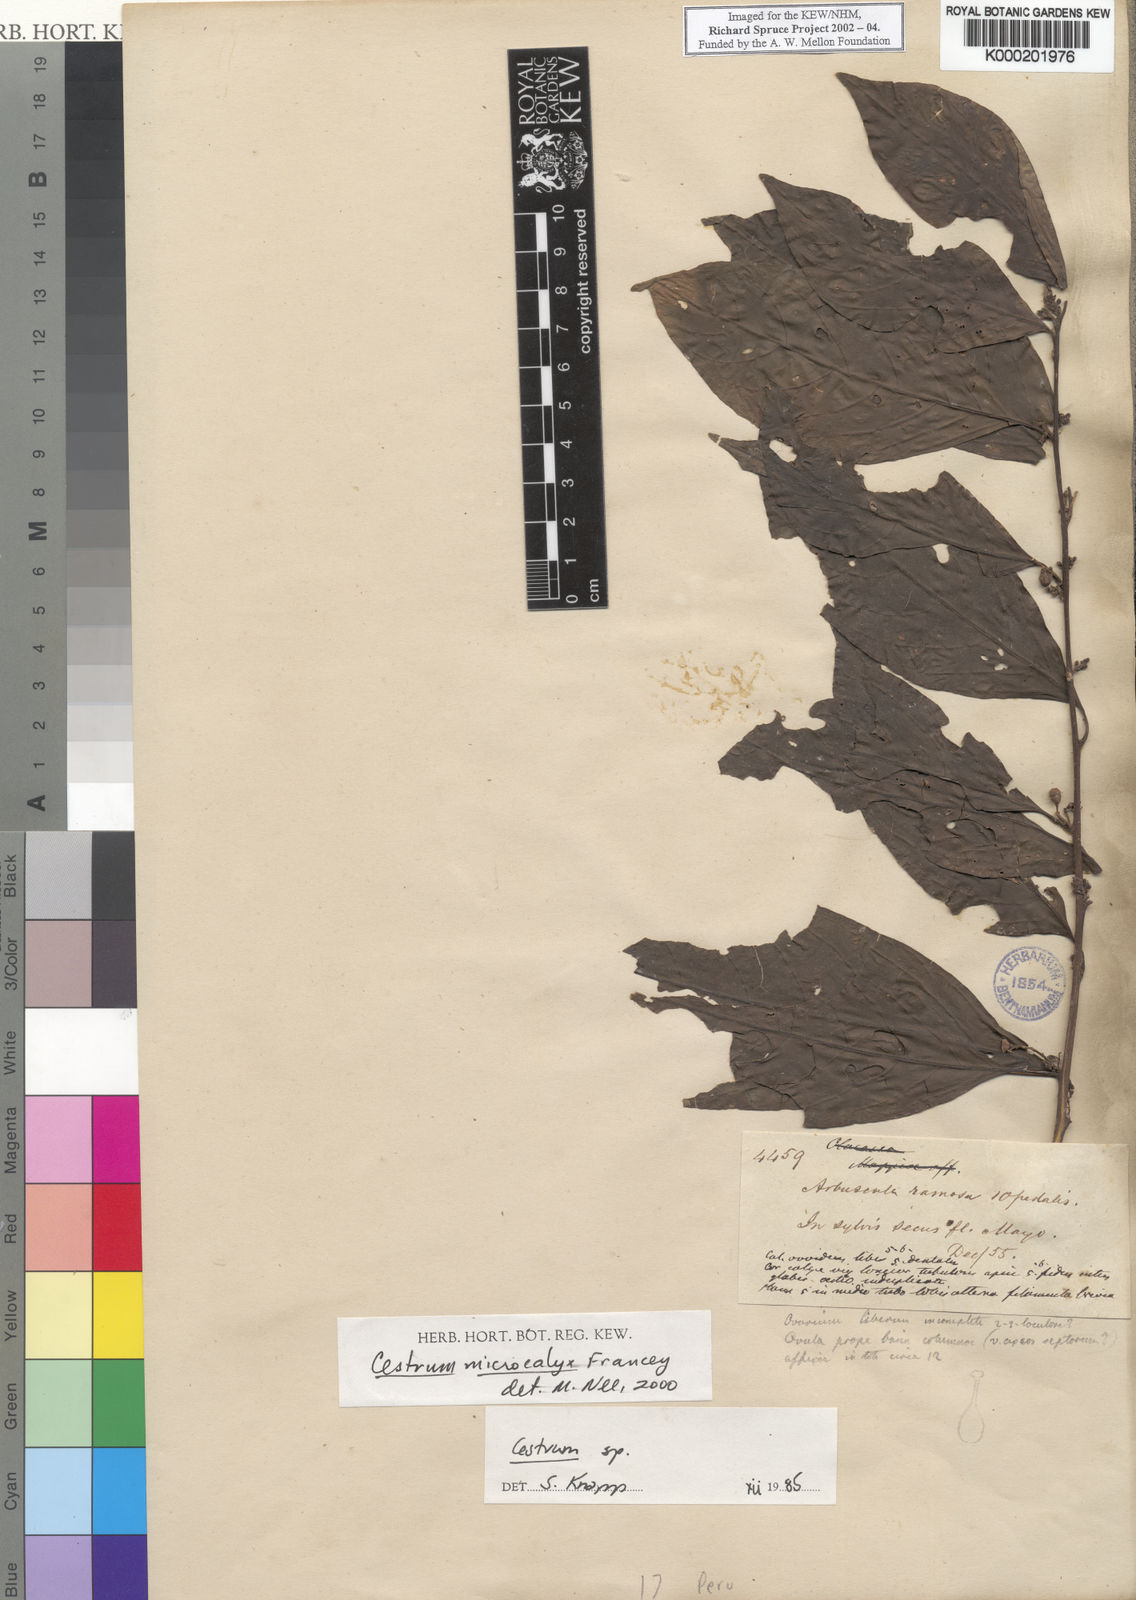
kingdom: Plantae
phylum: Tracheophyta
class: Magnoliopsida
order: Solanales
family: Solanaceae
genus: Cestrum
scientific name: Cestrum microcalyx
